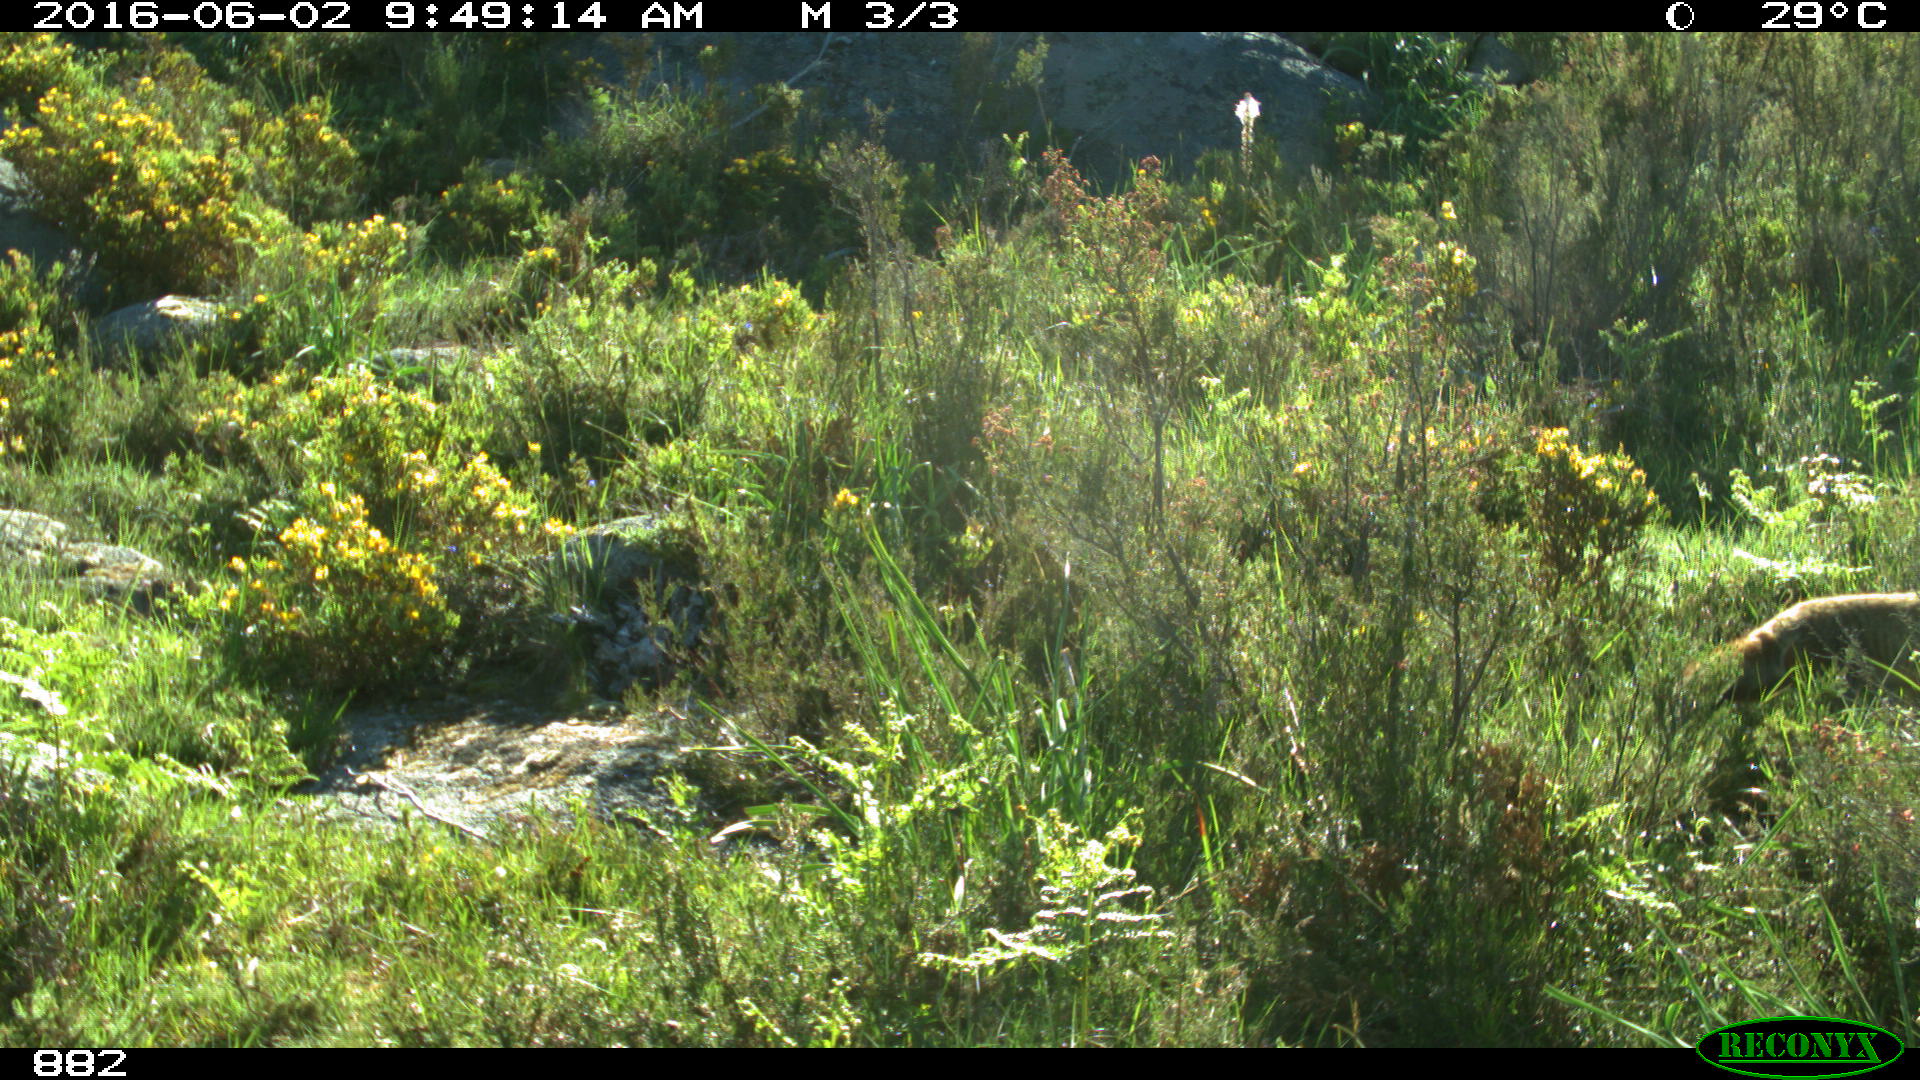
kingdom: Animalia
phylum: Chordata
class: Mammalia
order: Carnivora
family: Canidae
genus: Vulpes
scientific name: Vulpes vulpes
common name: Red fox
